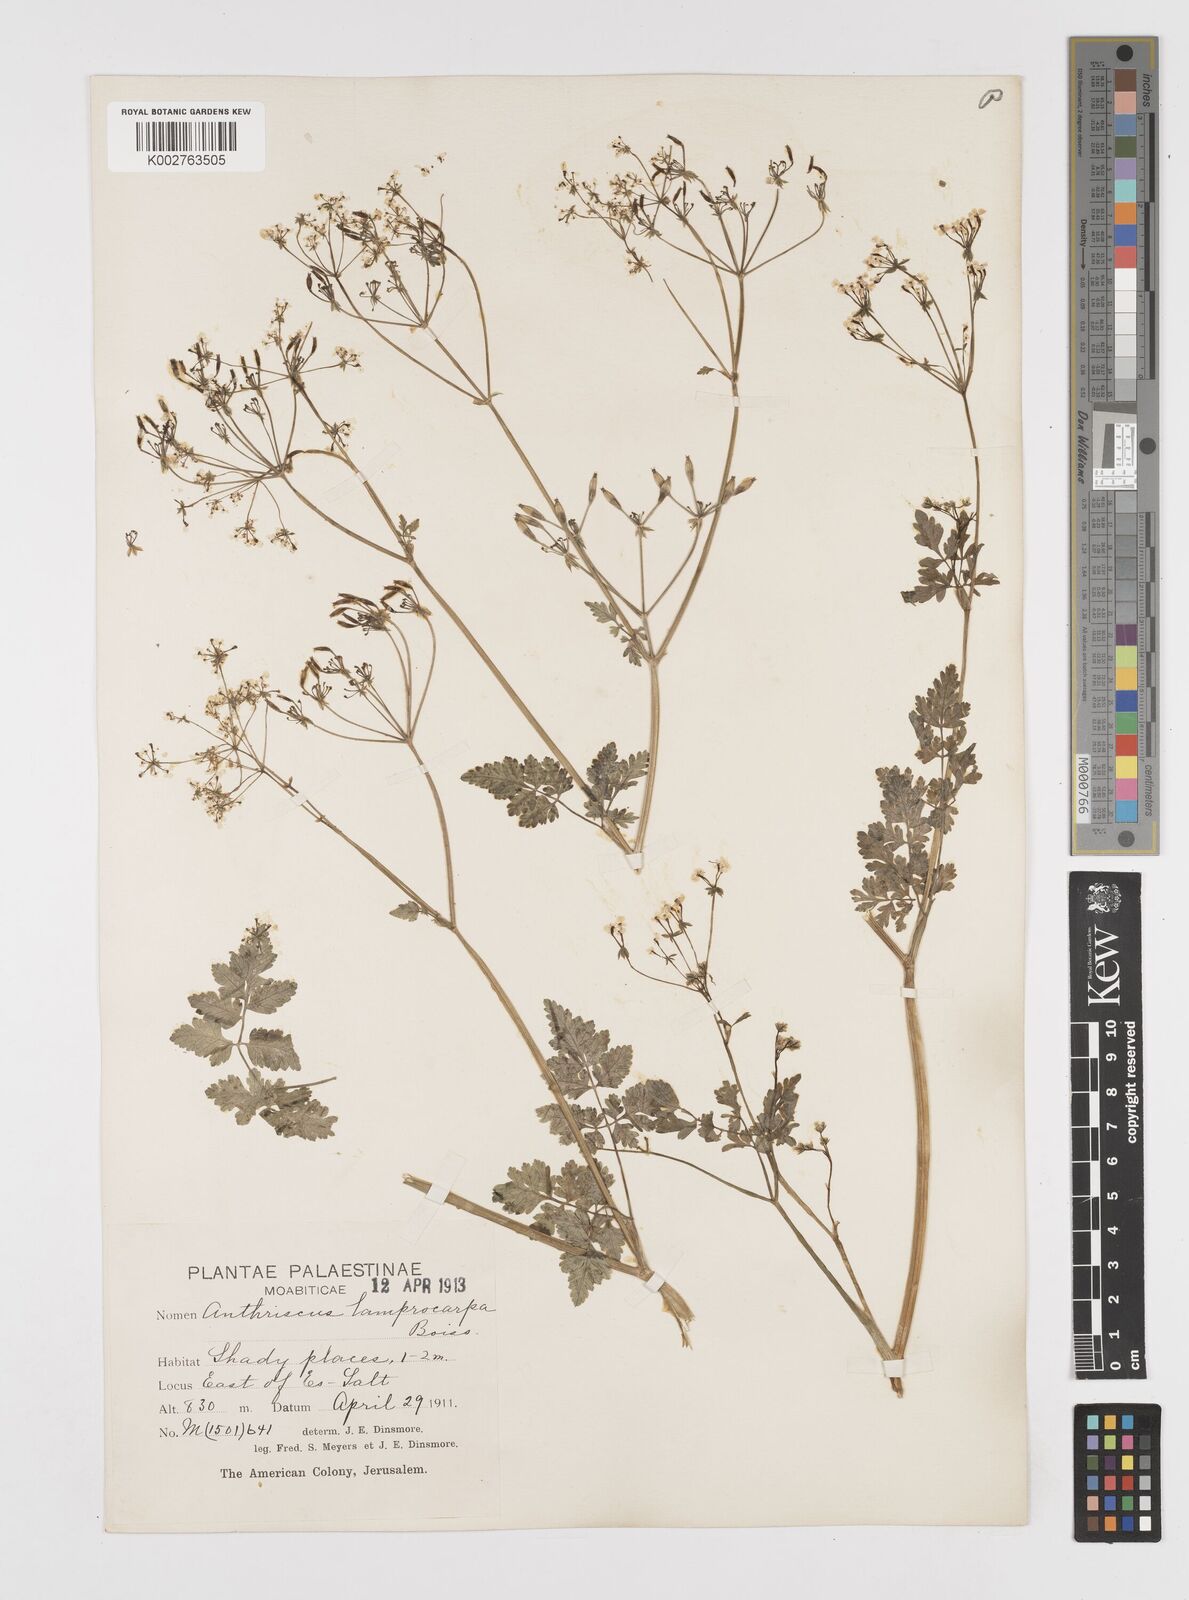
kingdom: Plantae
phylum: Tracheophyta
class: Magnoliopsida
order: Apiales
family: Apiaceae
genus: Anthriscus
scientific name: Anthriscus lamprocarpa
